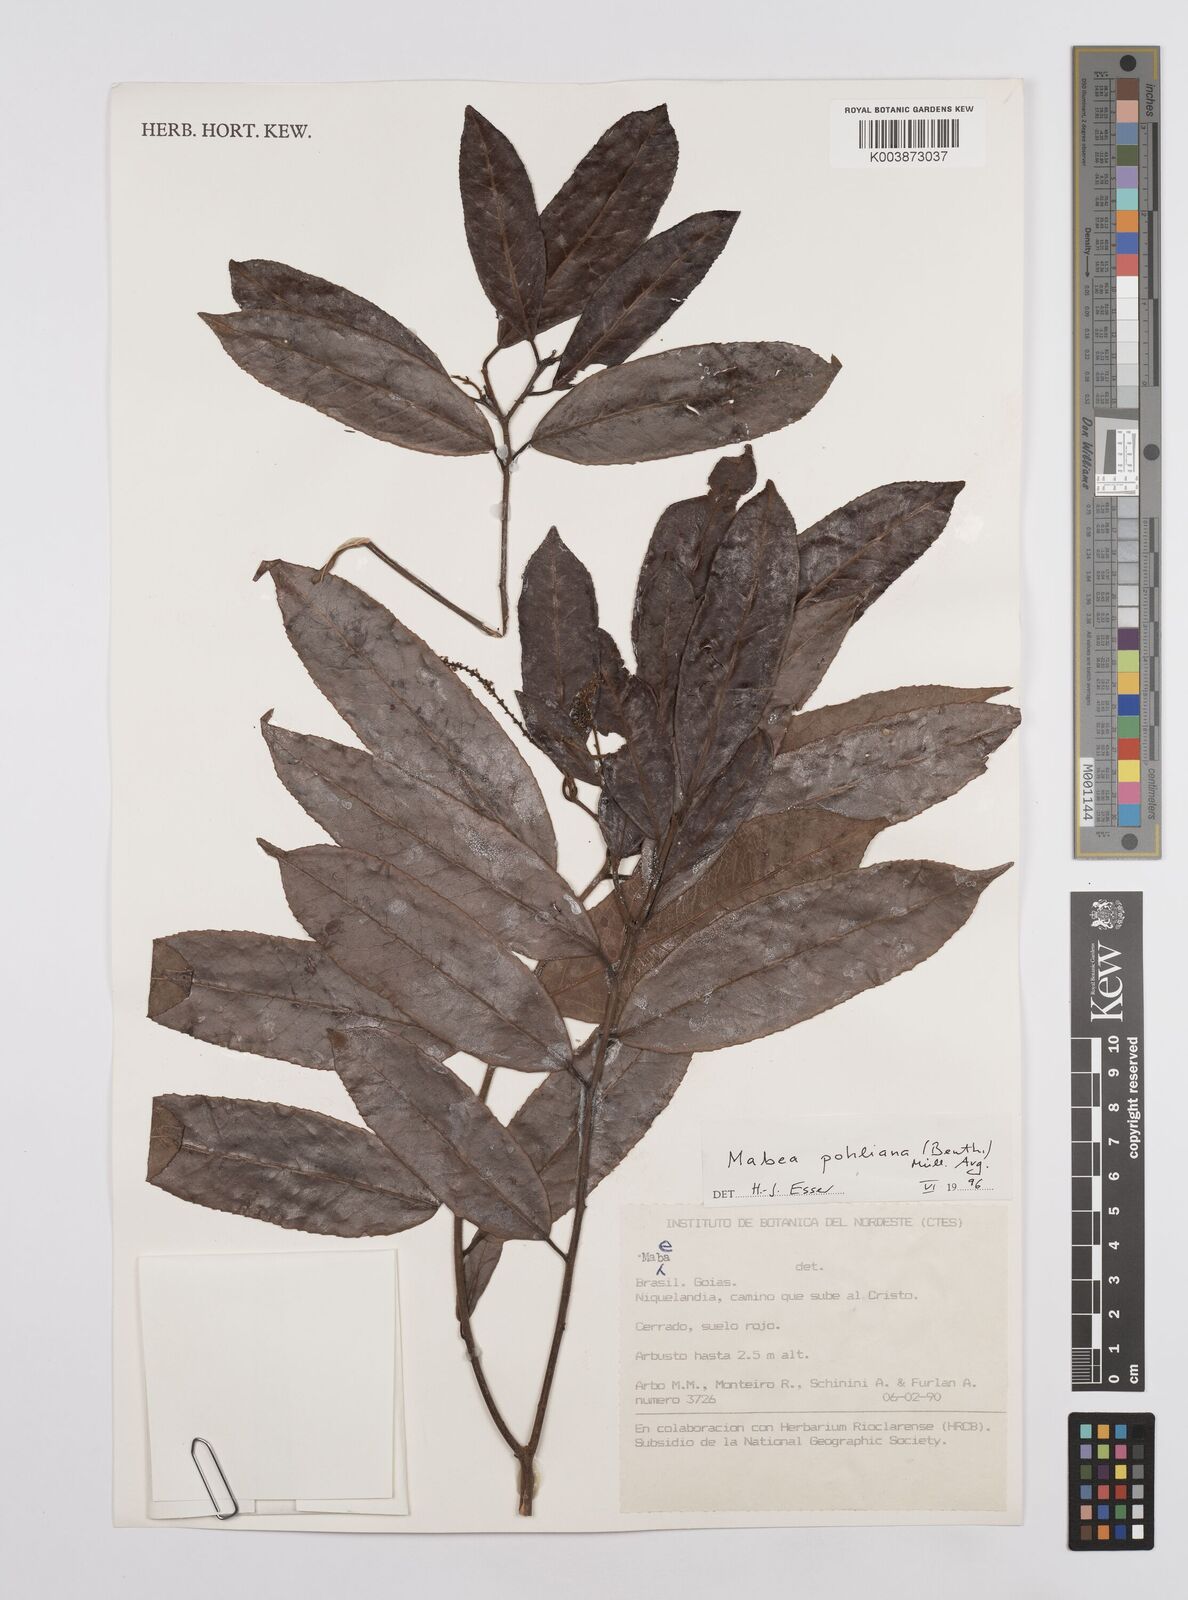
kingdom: Plantae
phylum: Tracheophyta
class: Magnoliopsida
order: Malpighiales
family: Euphorbiaceae
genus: Mabea
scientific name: Mabea pohliana
